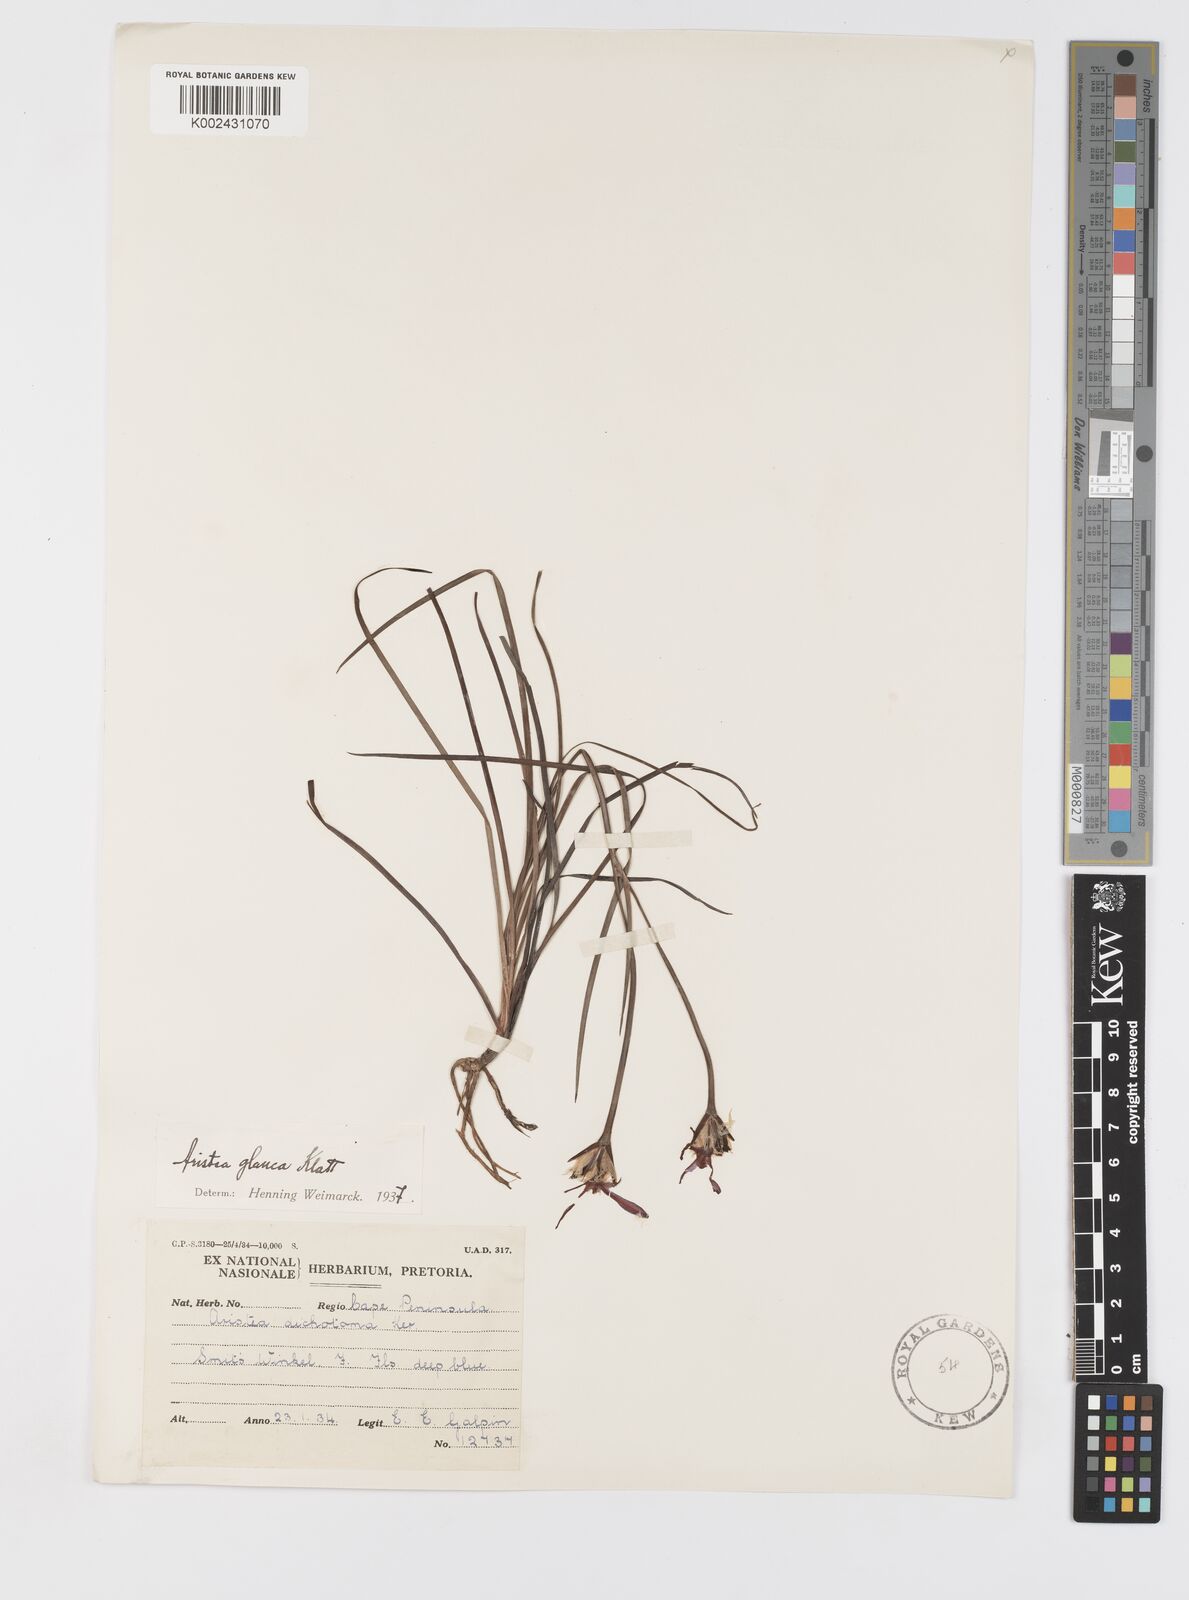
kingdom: Plantae
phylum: Tracheophyta
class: Liliopsida
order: Asparagales
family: Iridaceae
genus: Aristea
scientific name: Aristea glauca
